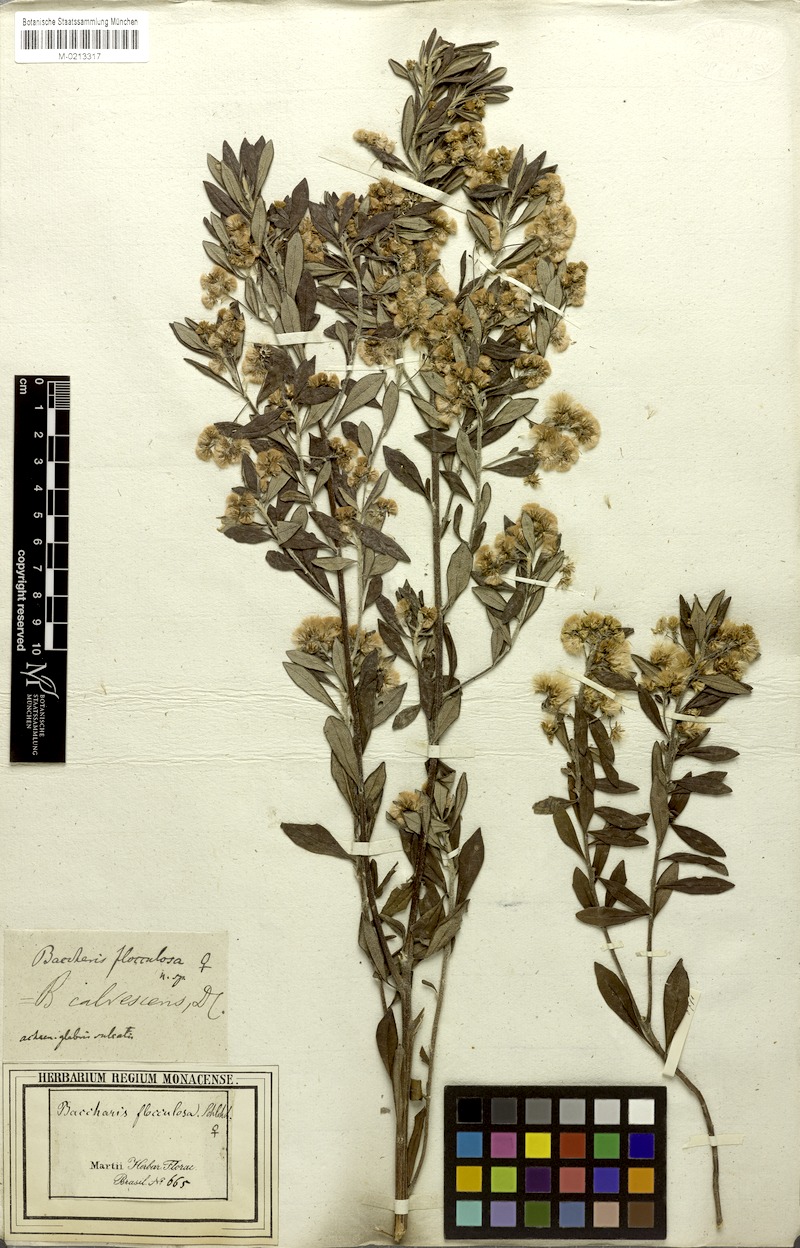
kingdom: Plantae
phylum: Tracheophyta
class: Magnoliopsida
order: Asterales
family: Asteraceae
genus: Baccharis
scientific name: Baccharis calvescens
